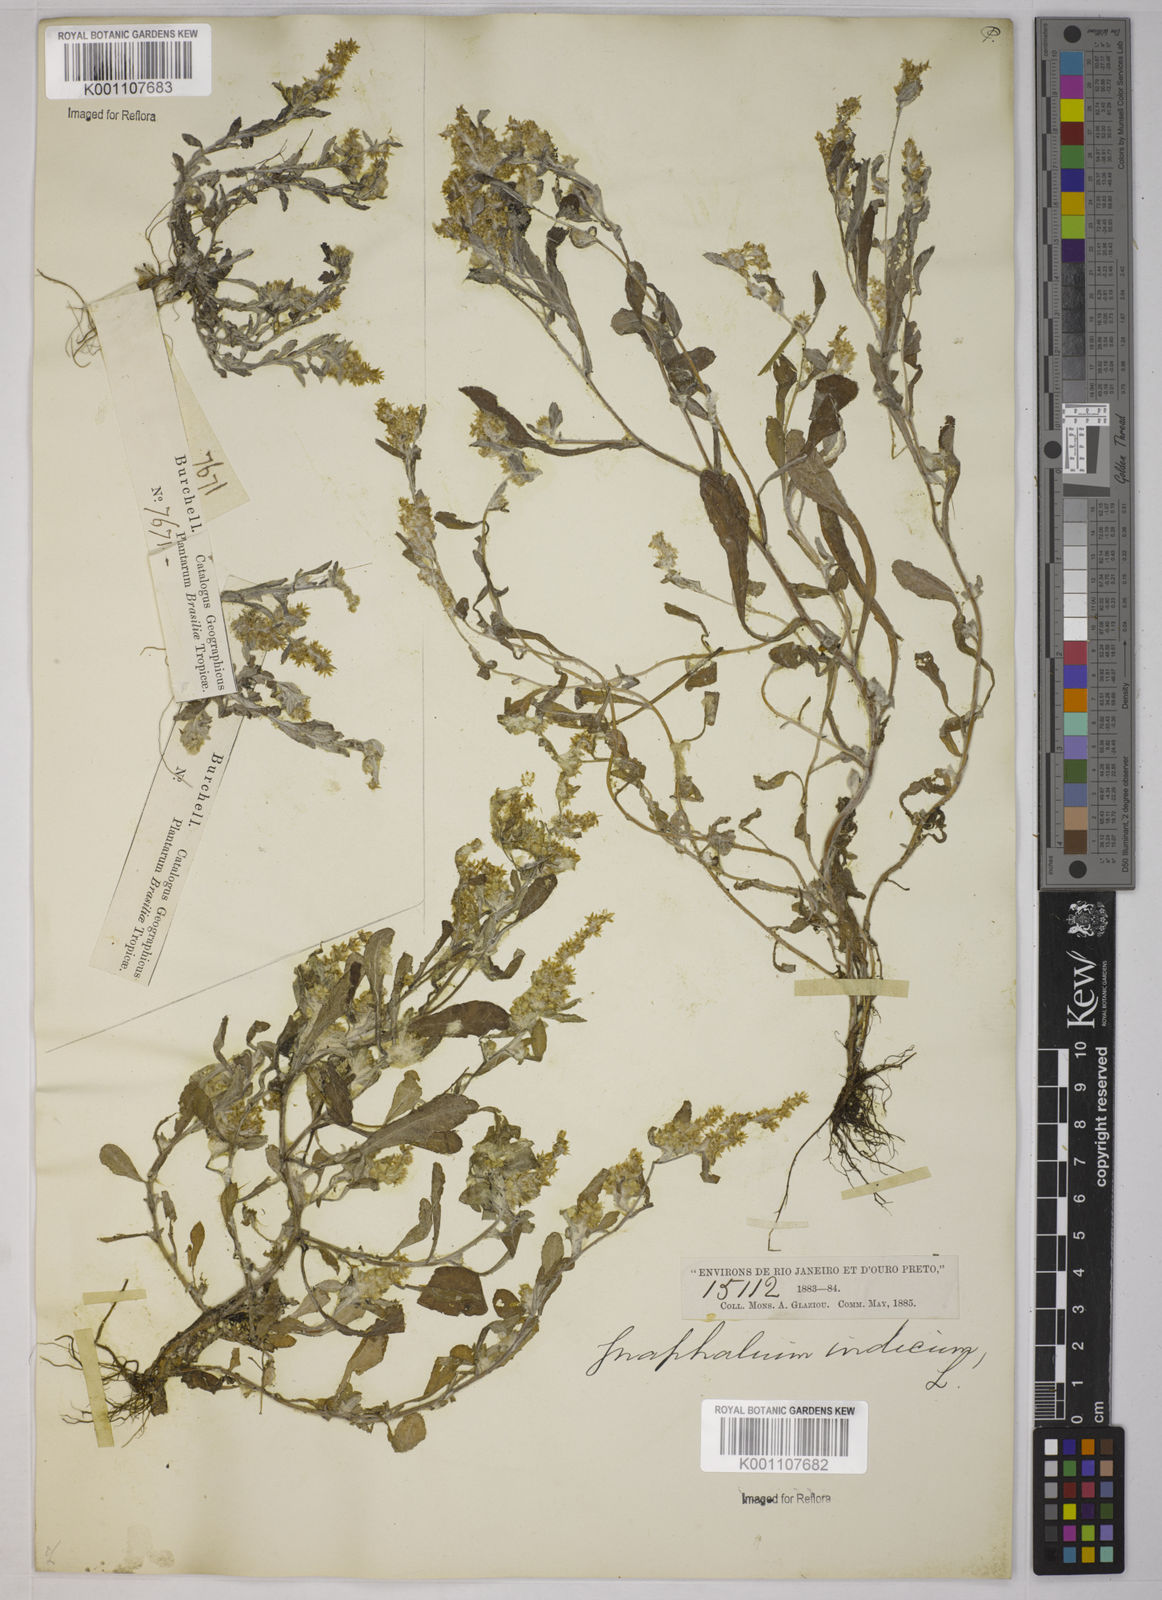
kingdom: Plantae
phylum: Tracheophyta
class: Magnoliopsida
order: Asterales
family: Asteraceae
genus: Gnaphalium
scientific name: Gnaphalium polycaulon
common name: Western cudweed
